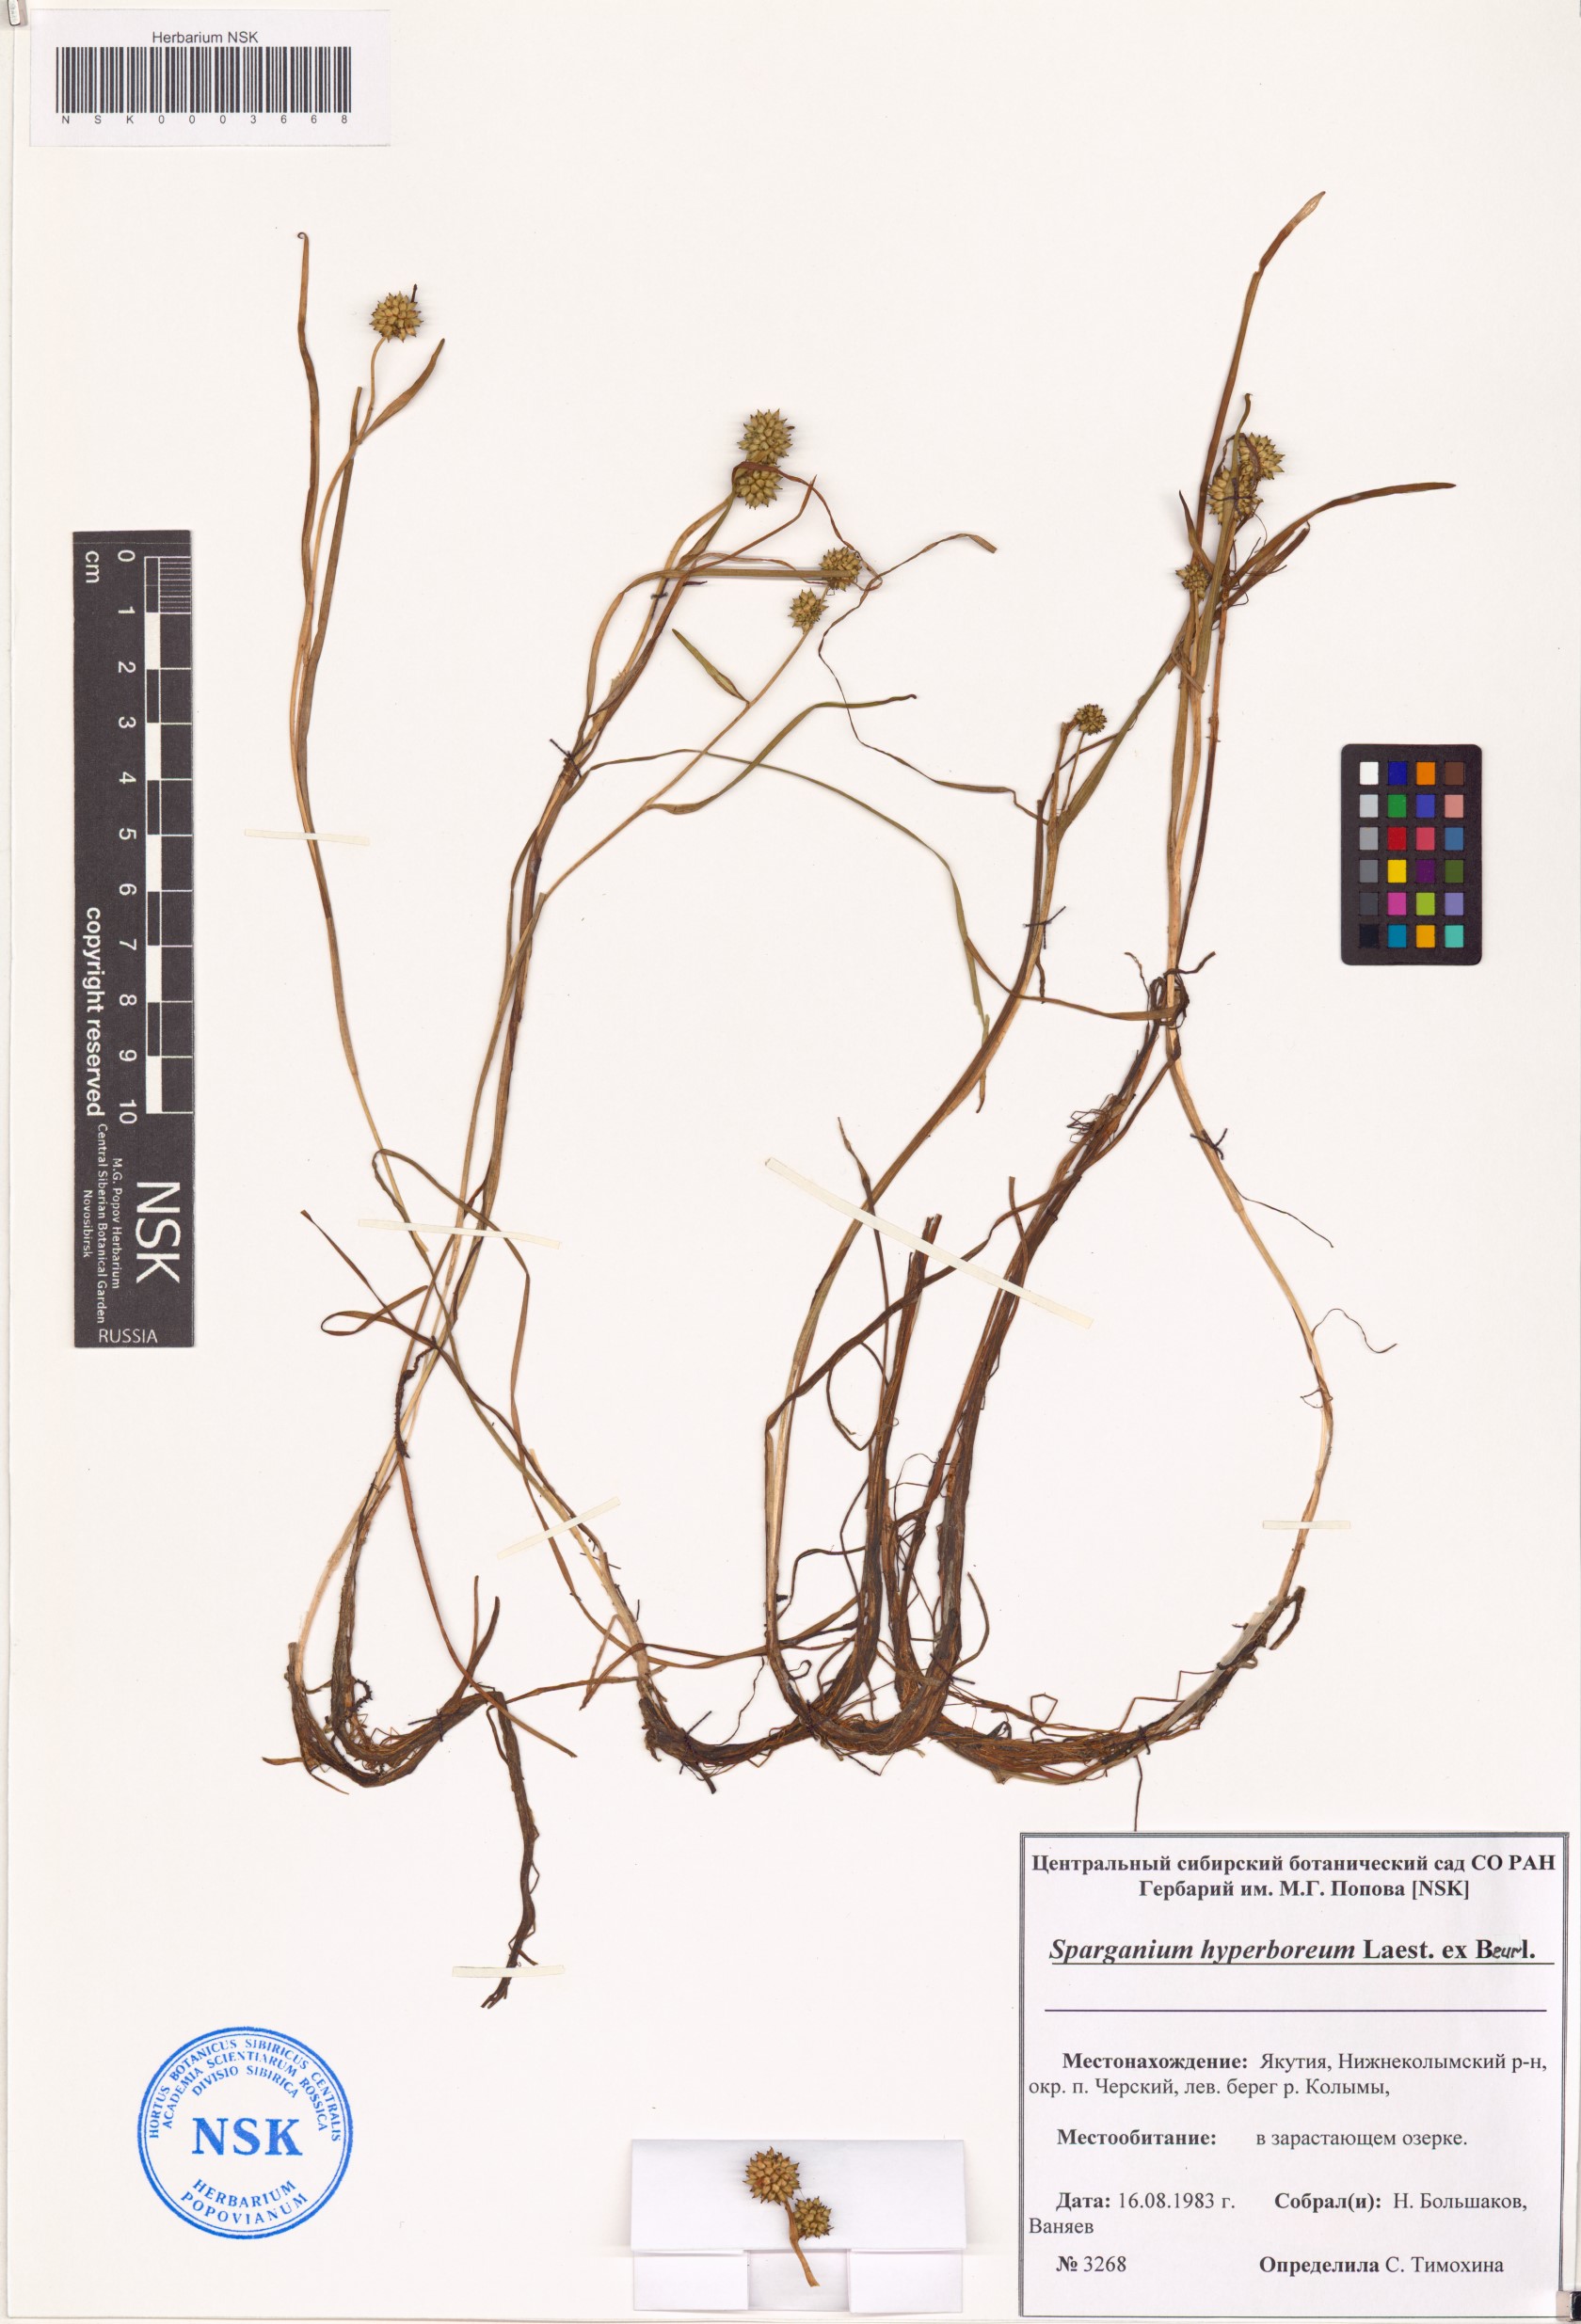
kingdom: Plantae
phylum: Tracheophyta
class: Liliopsida
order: Poales
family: Typhaceae
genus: Sparganium
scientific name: Sparganium hyperboreum
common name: Arctic burreed
